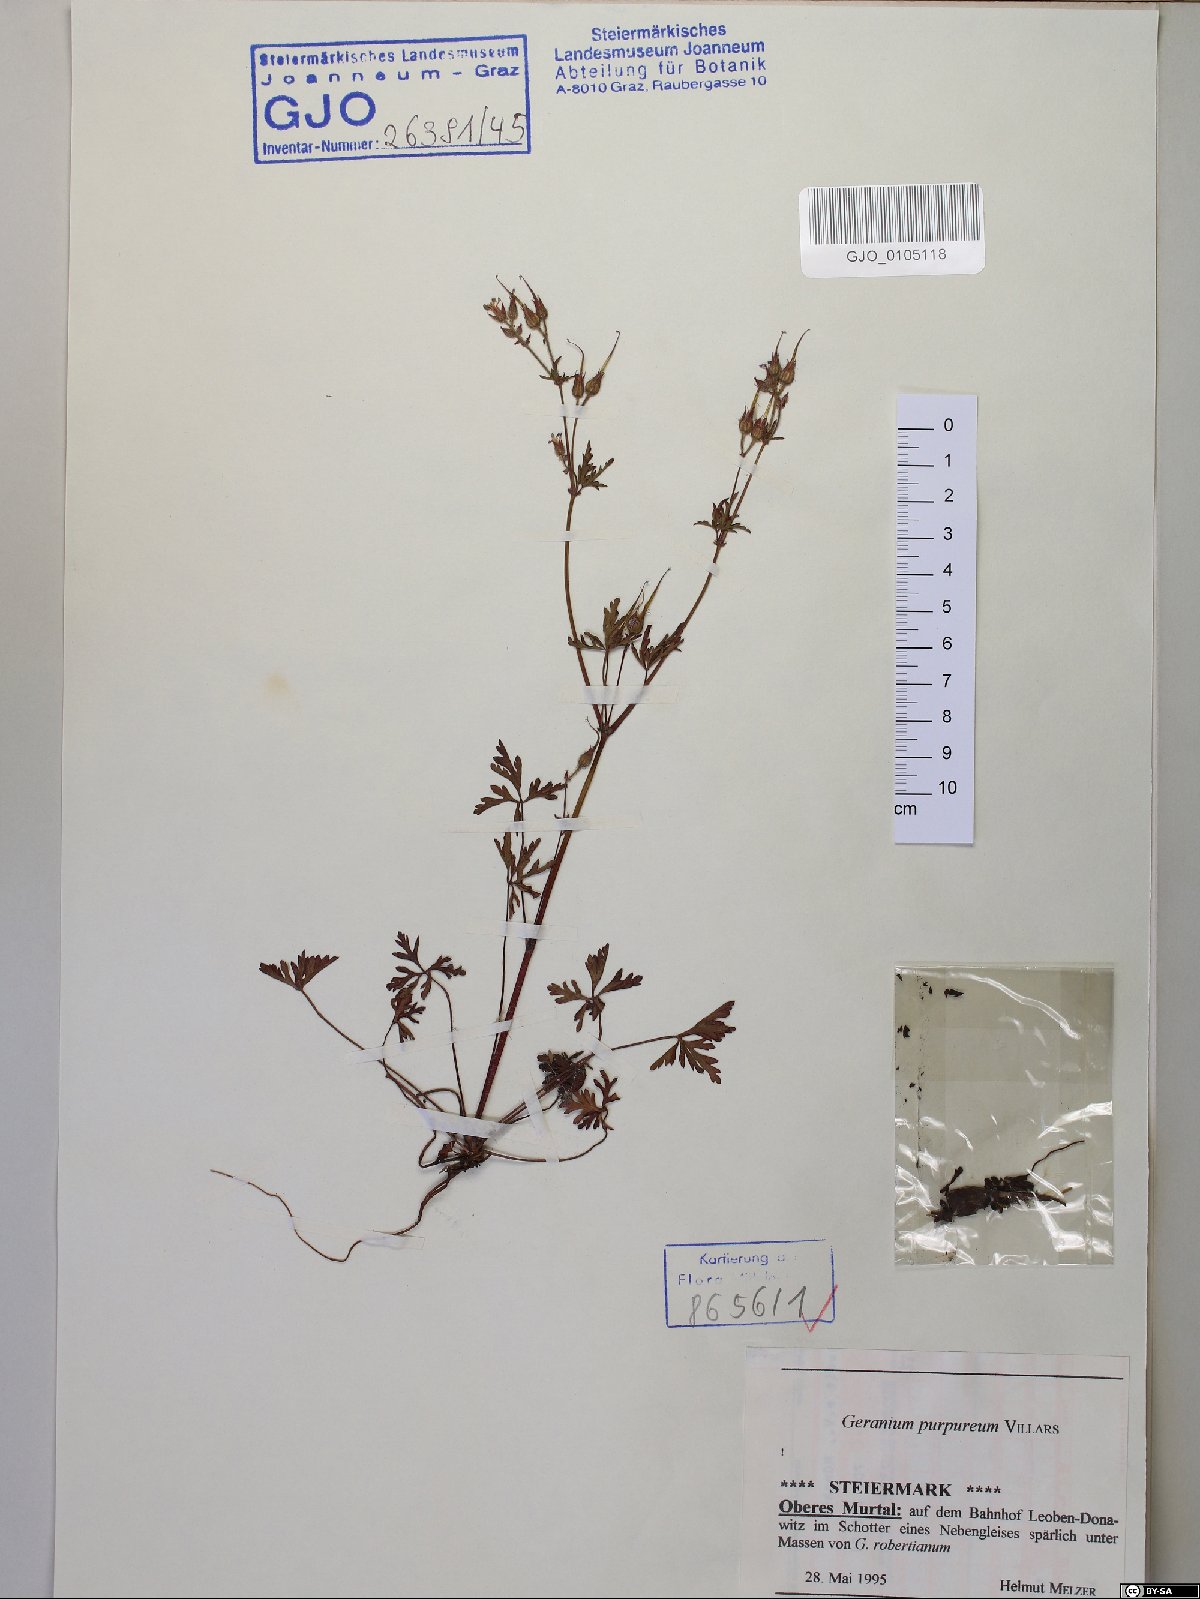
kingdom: Plantae
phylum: Tracheophyta
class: Magnoliopsida
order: Geraniales
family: Geraniaceae
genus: Geranium
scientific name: Geranium purpureum
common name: Little-robin
